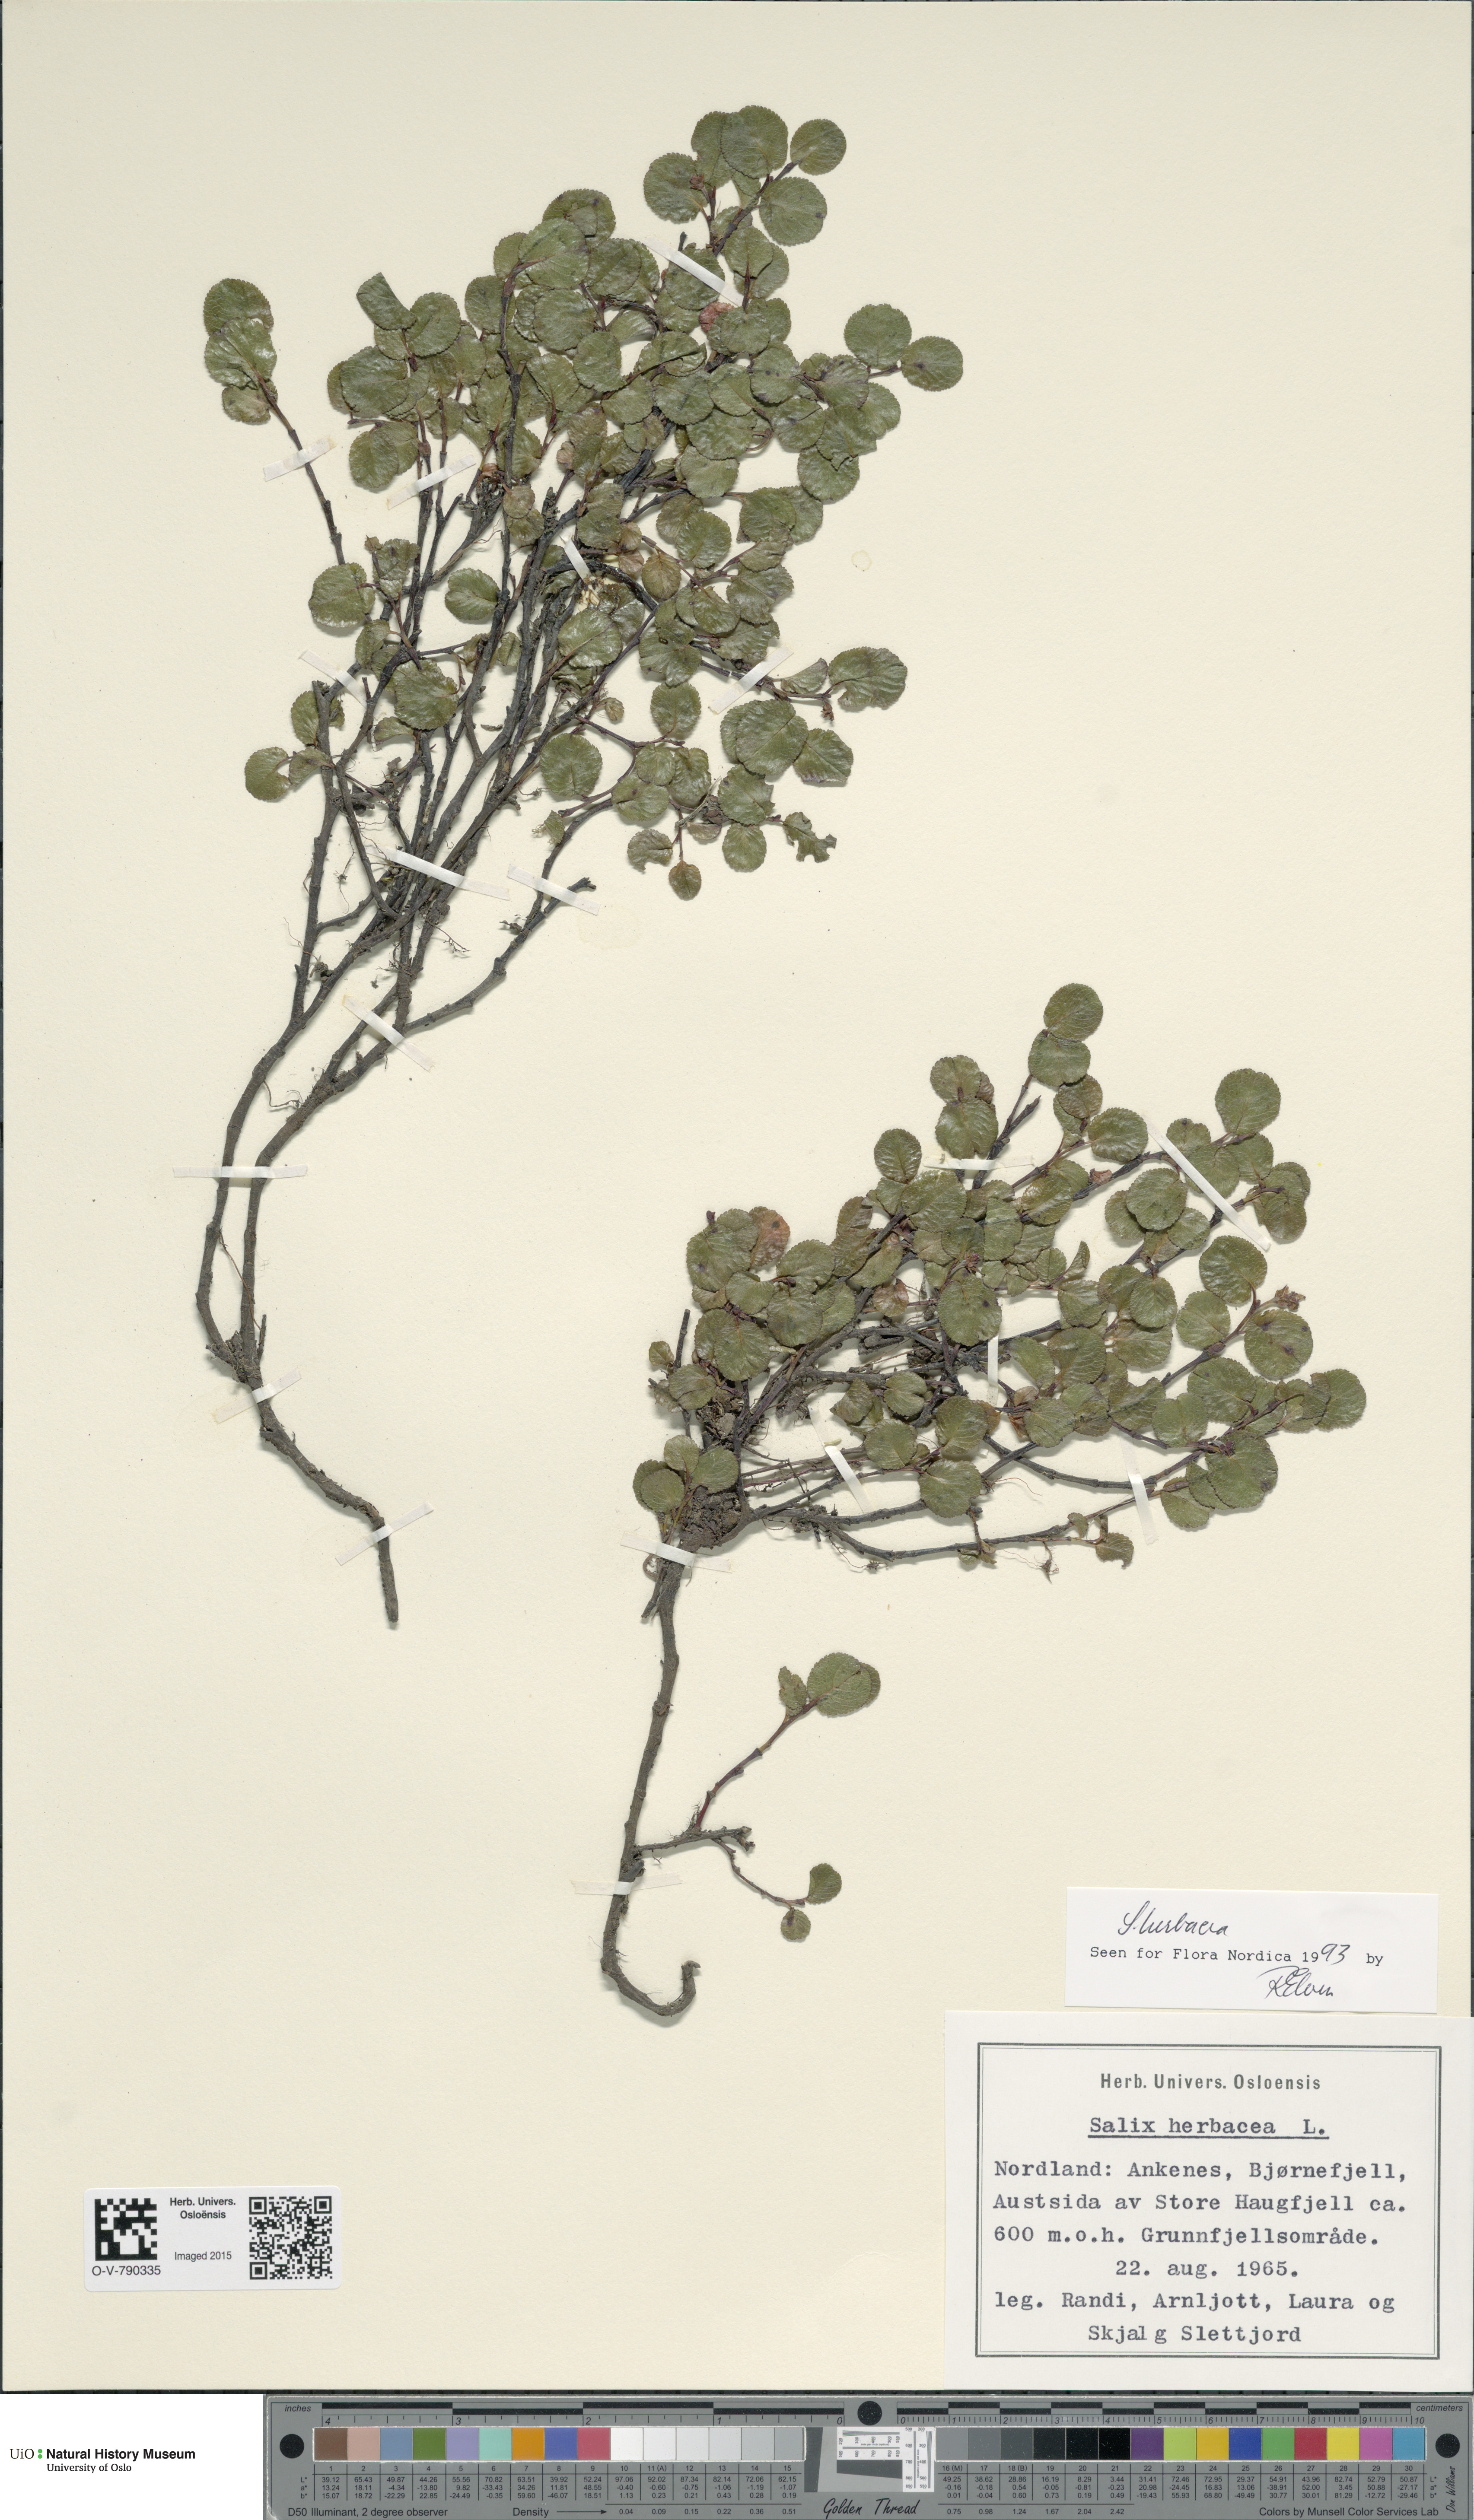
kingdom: Plantae
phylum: Tracheophyta
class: Magnoliopsida
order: Malpighiales
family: Salicaceae
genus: Salix
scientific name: Salix herbacea
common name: Dwarf willow
